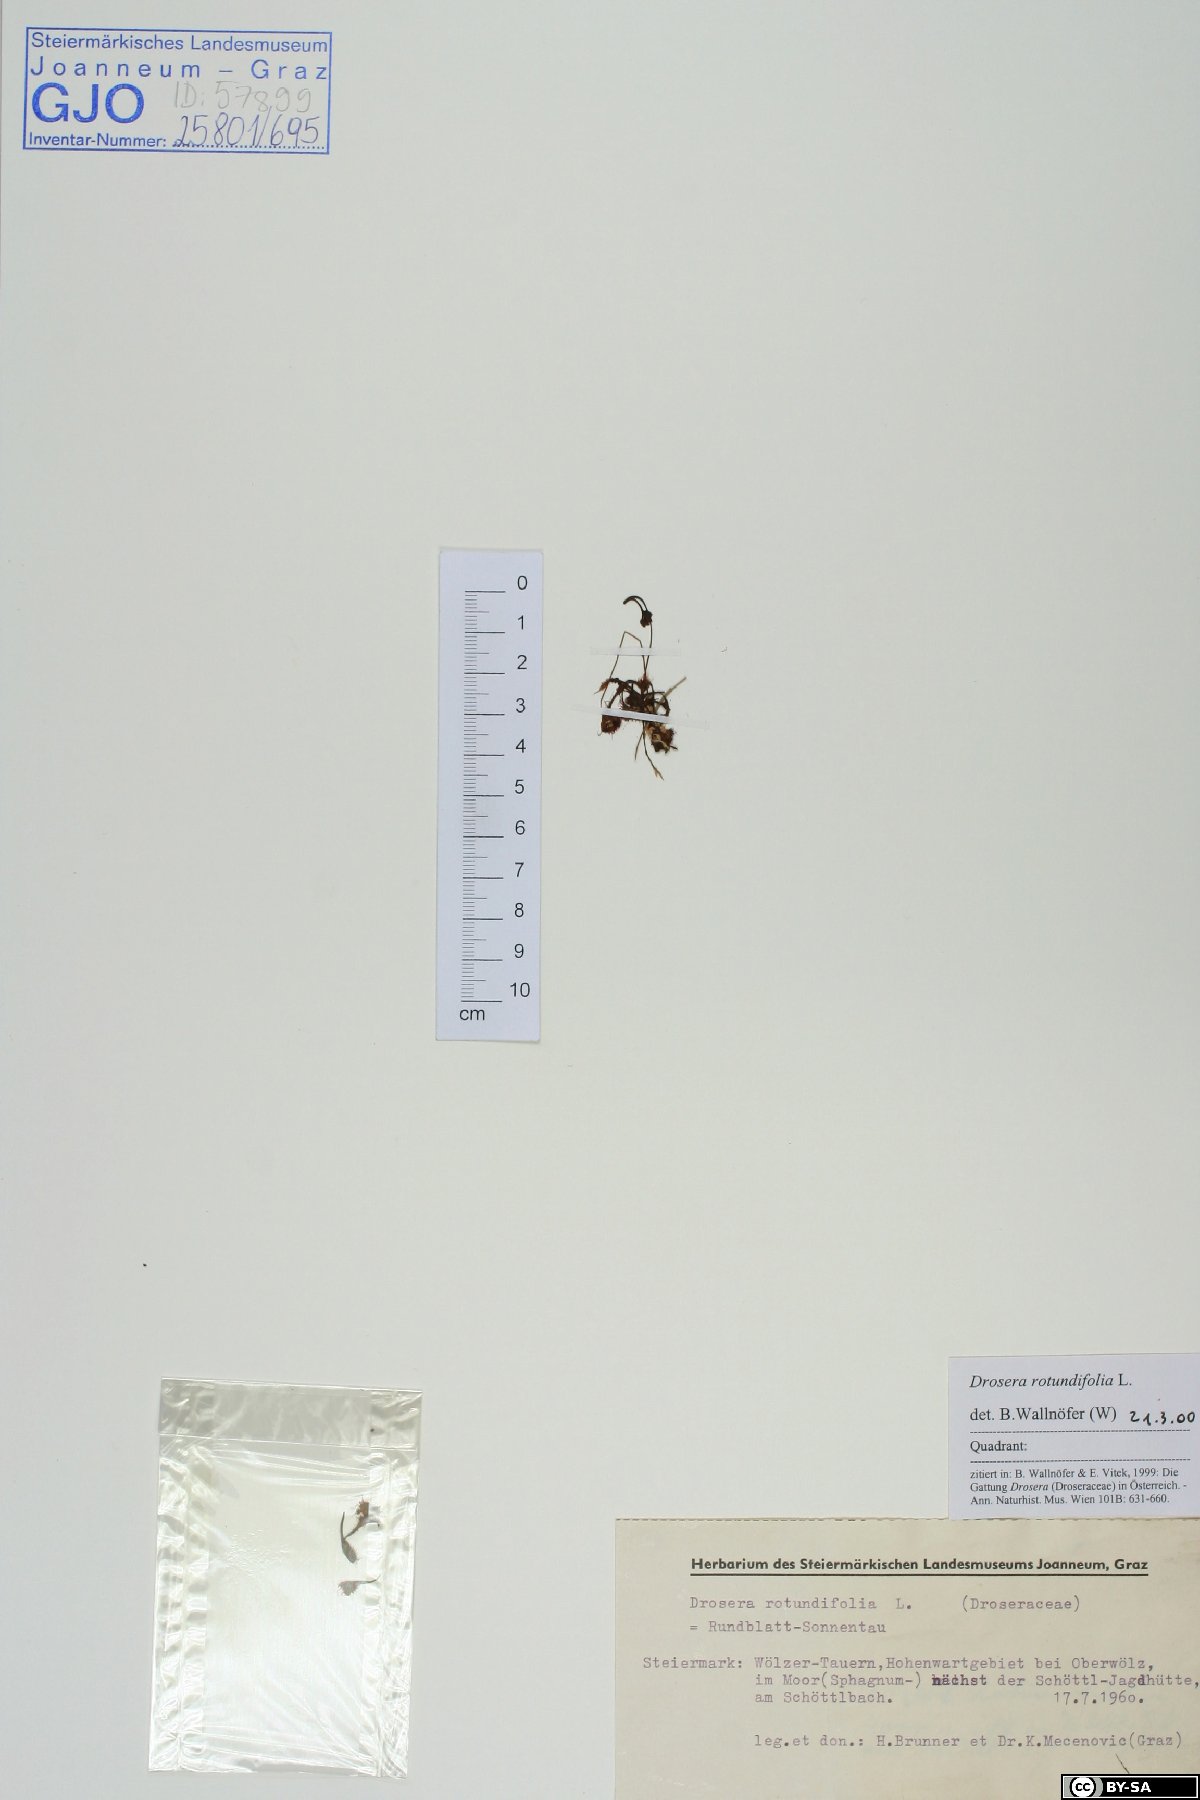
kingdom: Plantae
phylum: Tracheophyta
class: Magnoliopsida
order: Caryophyllales
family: Droseraceae
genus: Drosera
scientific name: Drosera rotundifolia
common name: Round-leaved sundew
